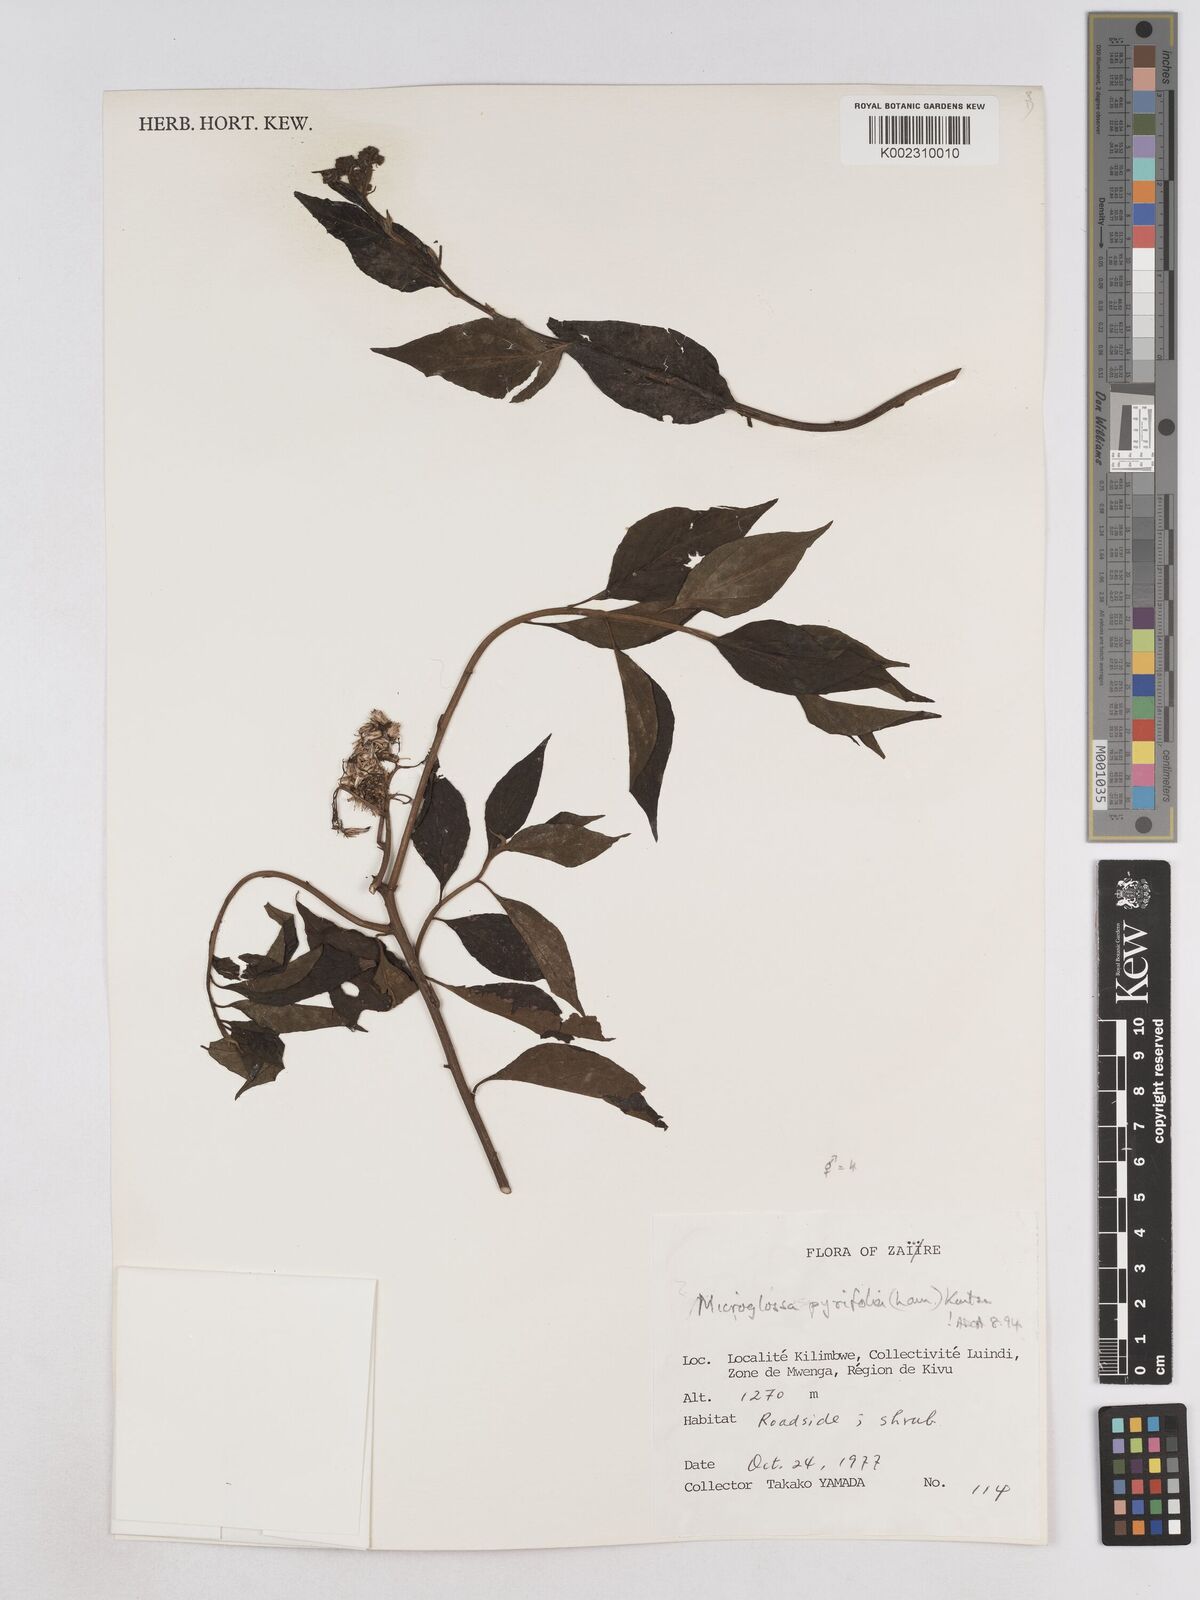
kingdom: Plantae
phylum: Tracheophyta
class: Magnoliopsida
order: Asterales
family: Asteraceae
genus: Microglossa
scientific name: Microglossa pyrifolia
